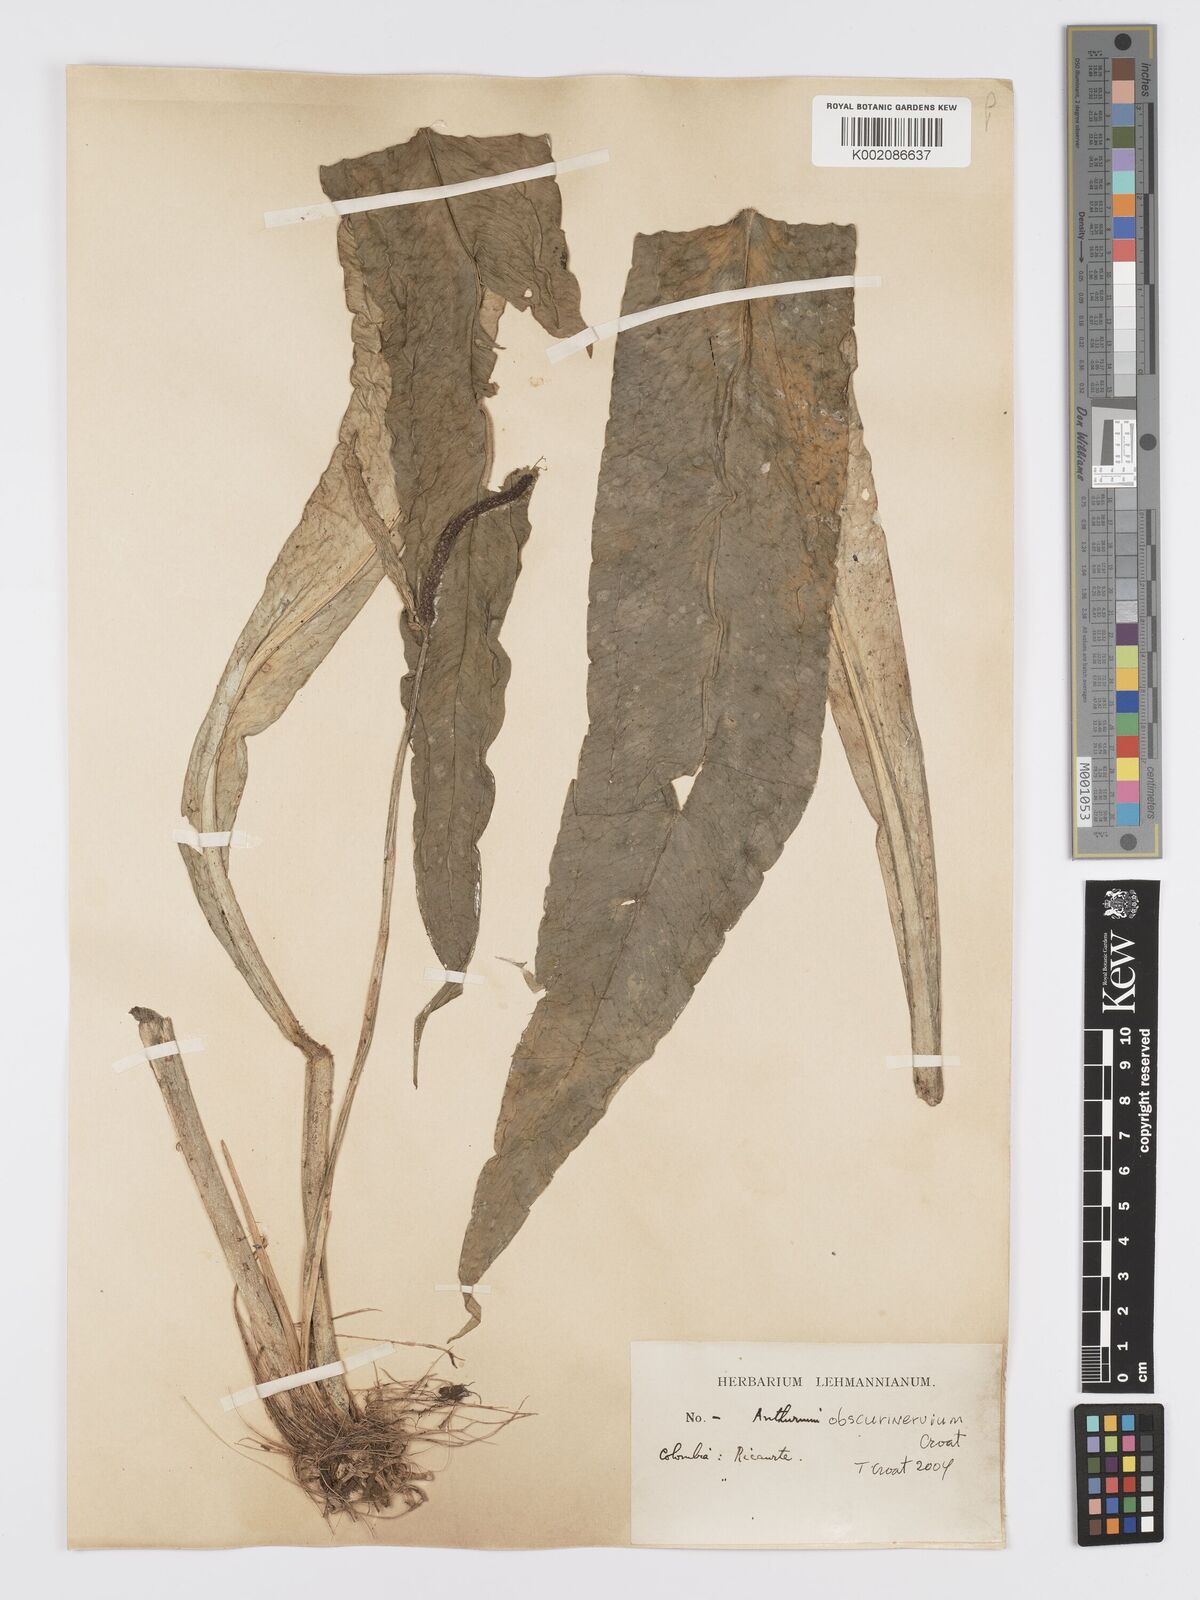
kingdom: Plantae
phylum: Tracheophyta
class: Liliopsida
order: Alismatales
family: Araceae
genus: Anthurium
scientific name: Anthurium obscurinervium
